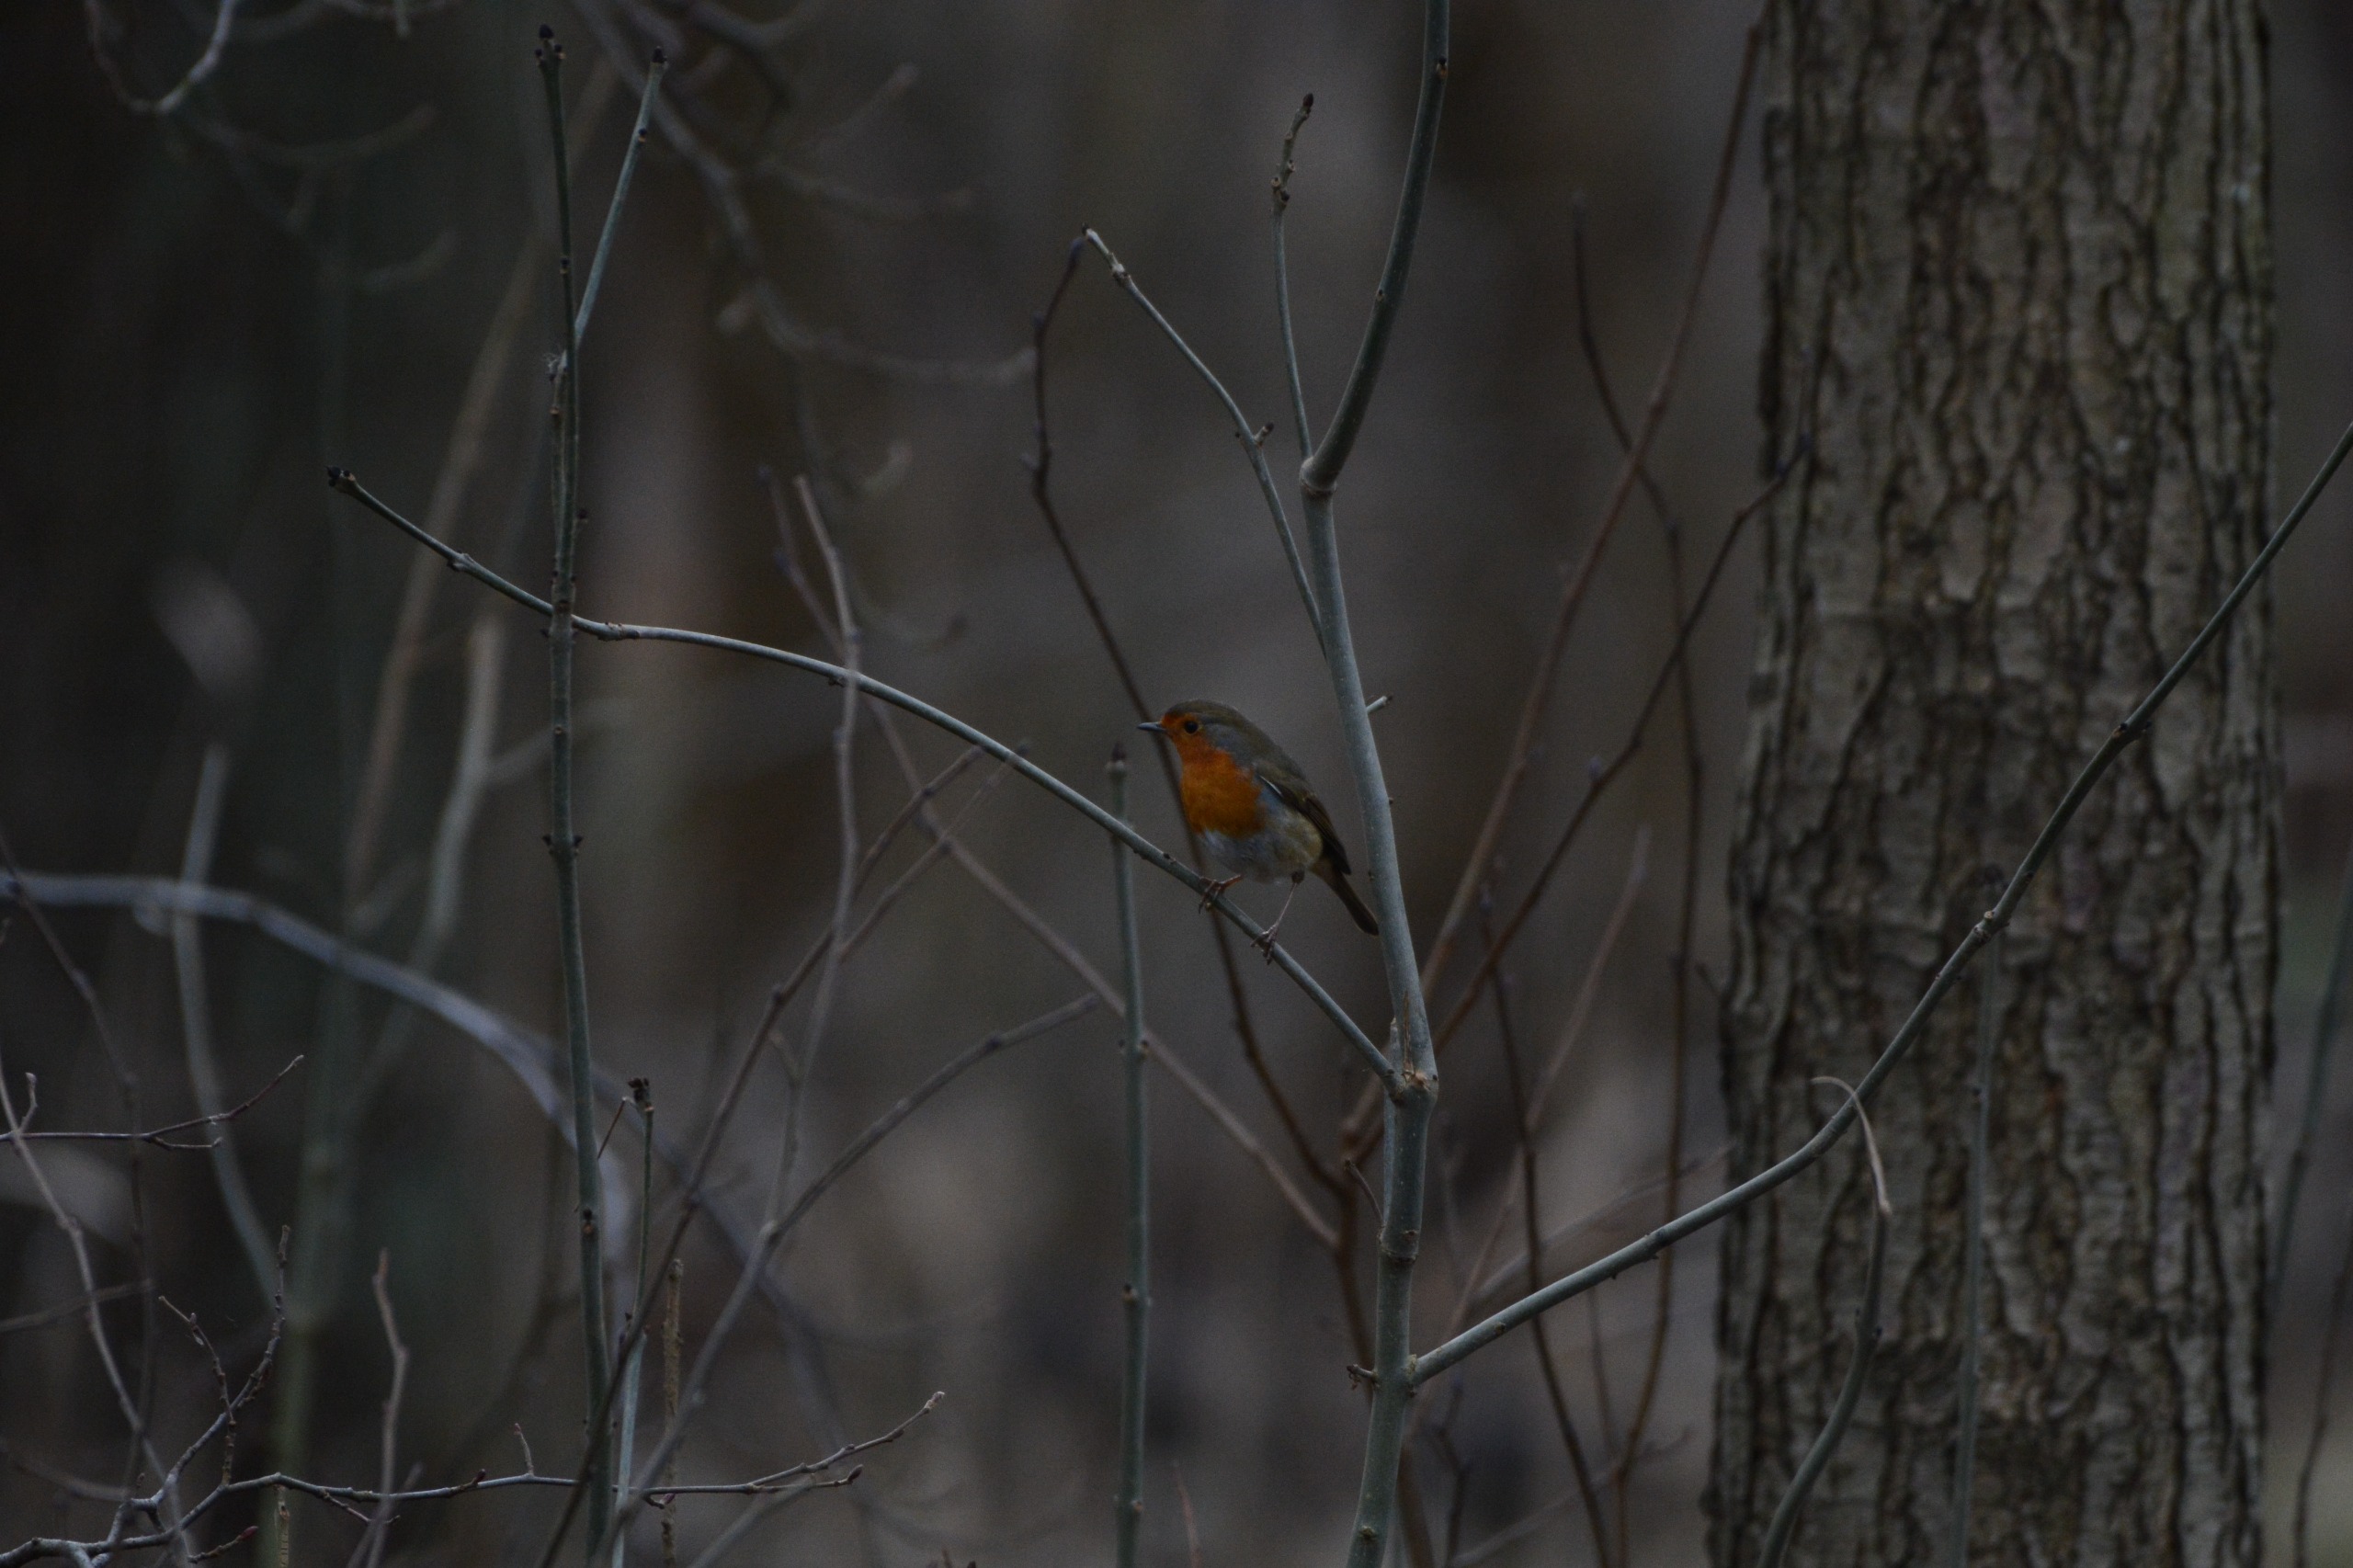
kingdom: Animalia
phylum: Chordata
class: Aves
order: Passeriformes
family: Muscicapidae
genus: Erithacus
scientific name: Erithacus rubecula
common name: Rødhals/rødkælk
